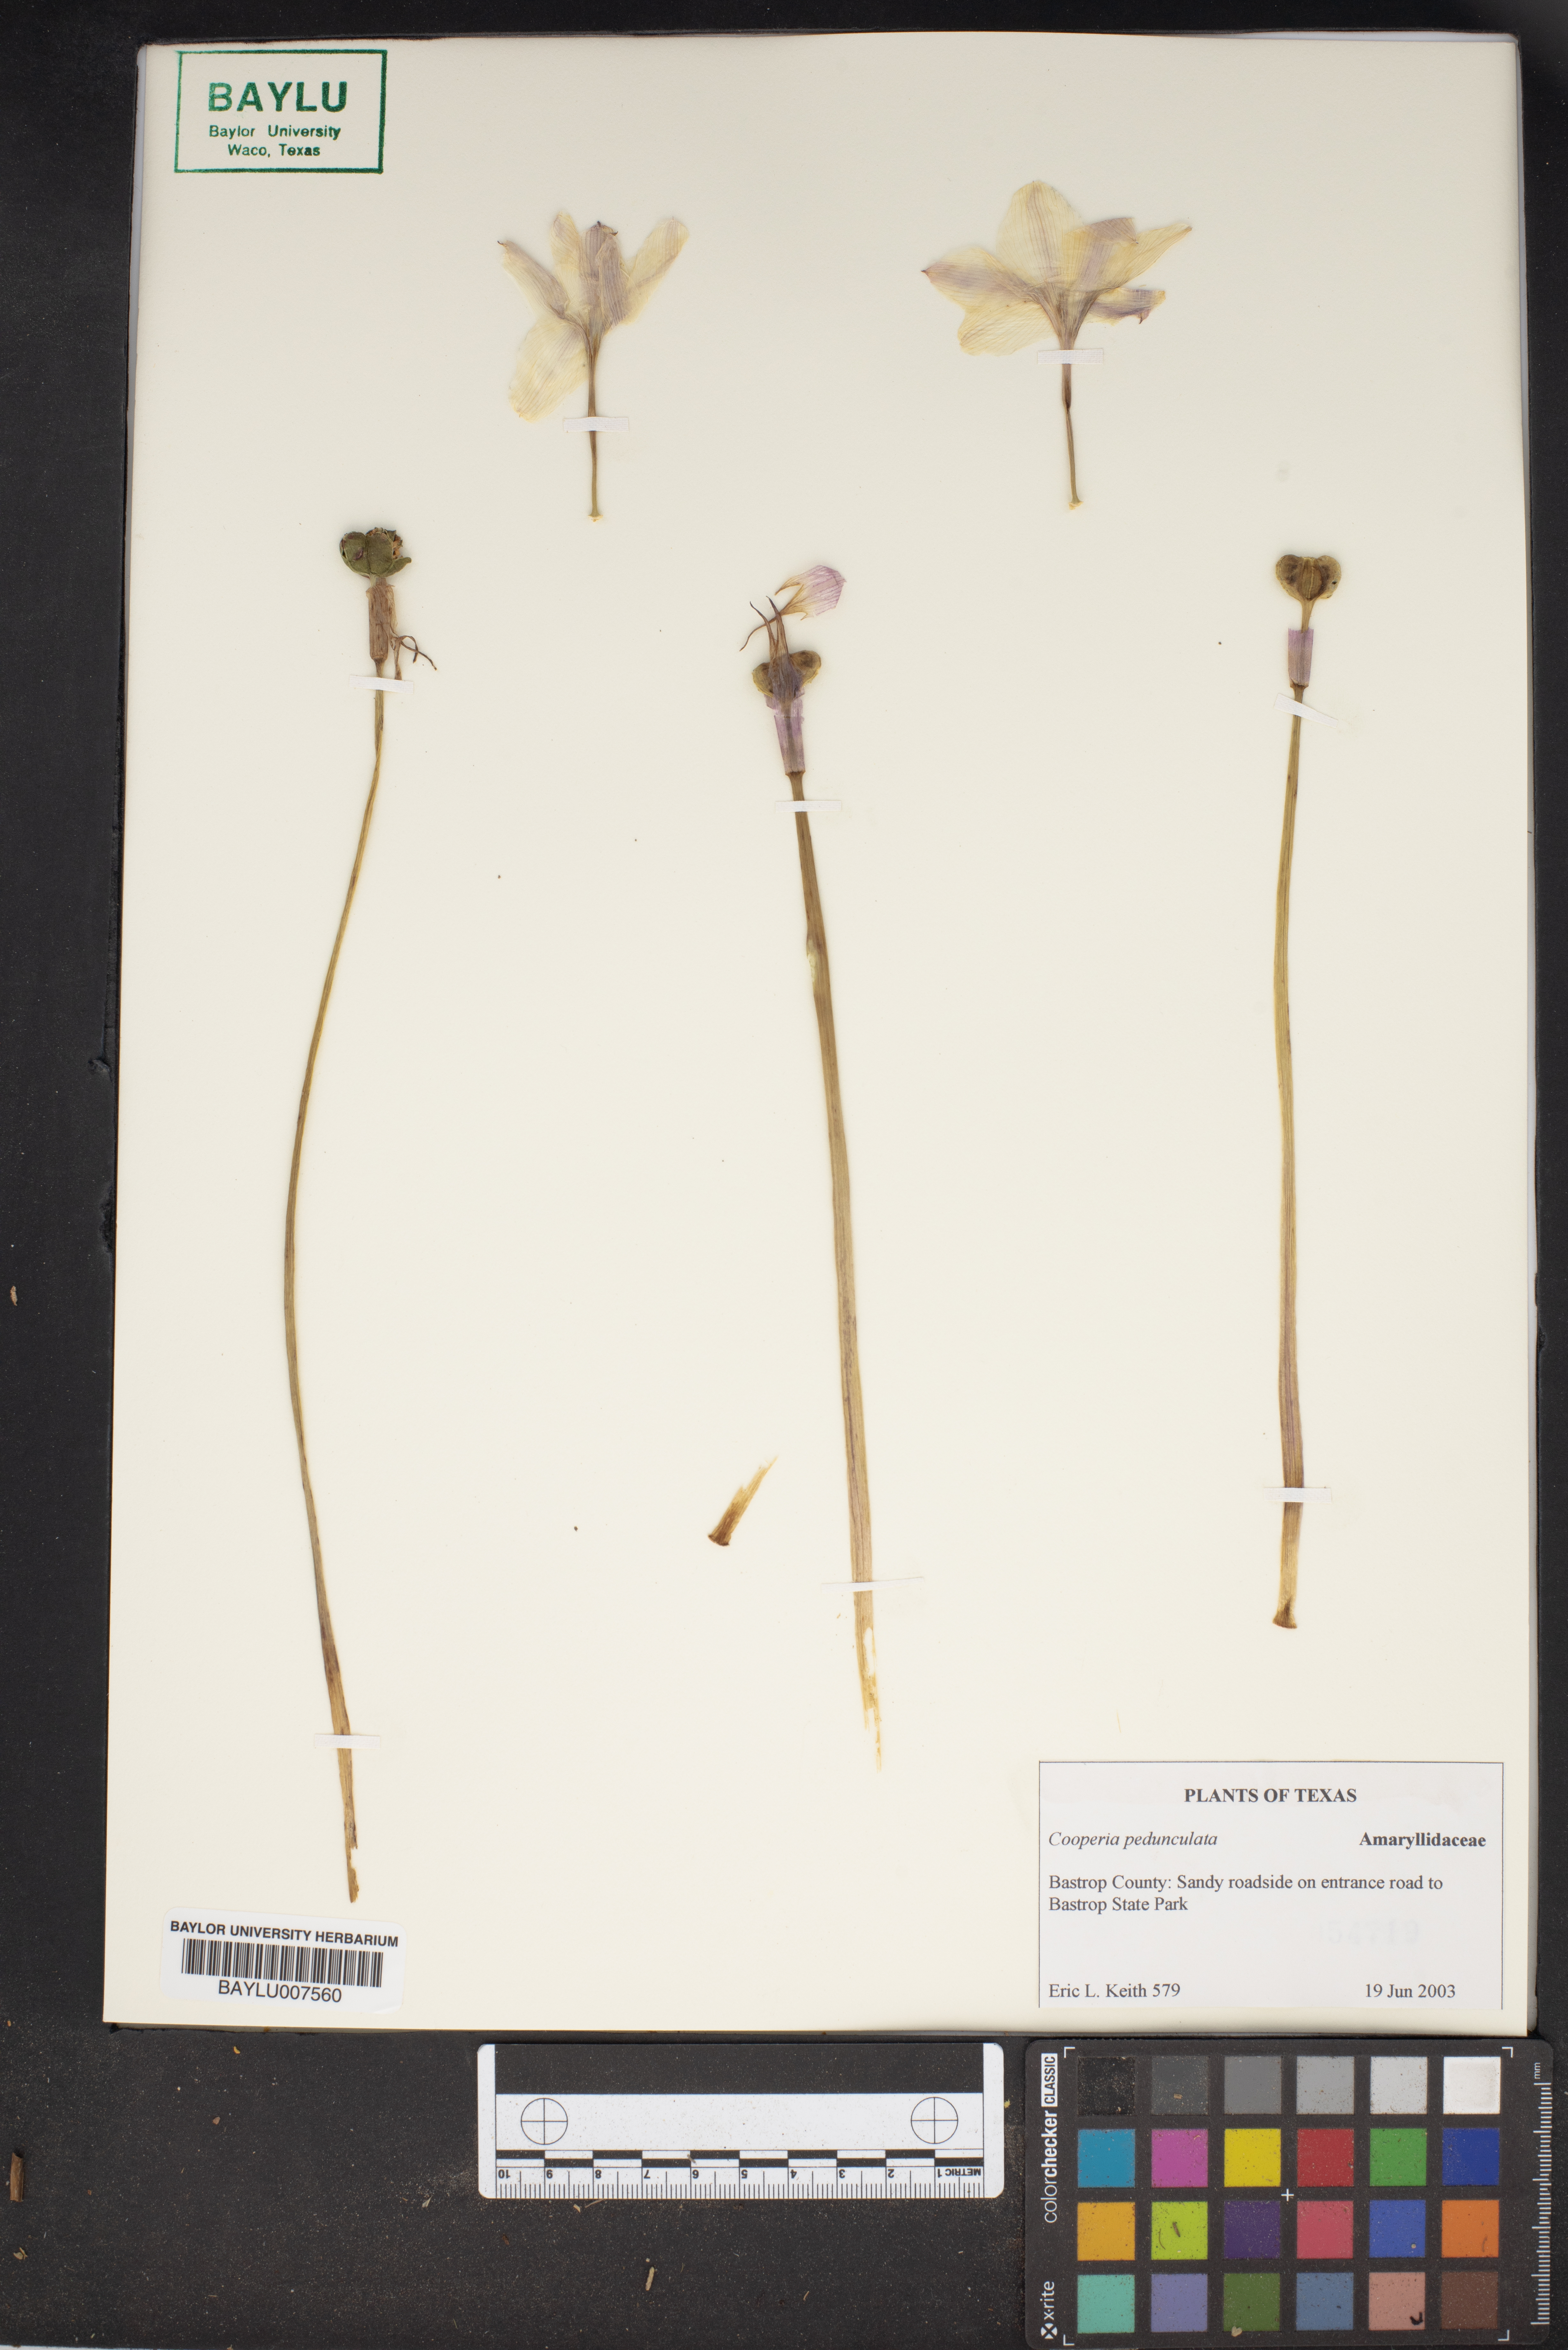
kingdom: Plantae
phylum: Tracheophyta
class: Liliopsida
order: Asparagales
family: Amaryllidaceae
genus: Zephyranthes
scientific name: Zephyranthes drummondii
